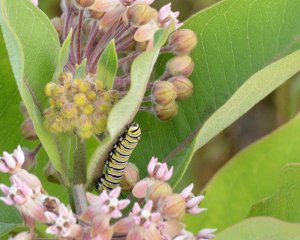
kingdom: Animalia
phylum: Arthropoda
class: Insecta
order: Lepidoptera
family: Nymphalidae
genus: Danaus
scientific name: Danaus plexippus
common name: Monarch
